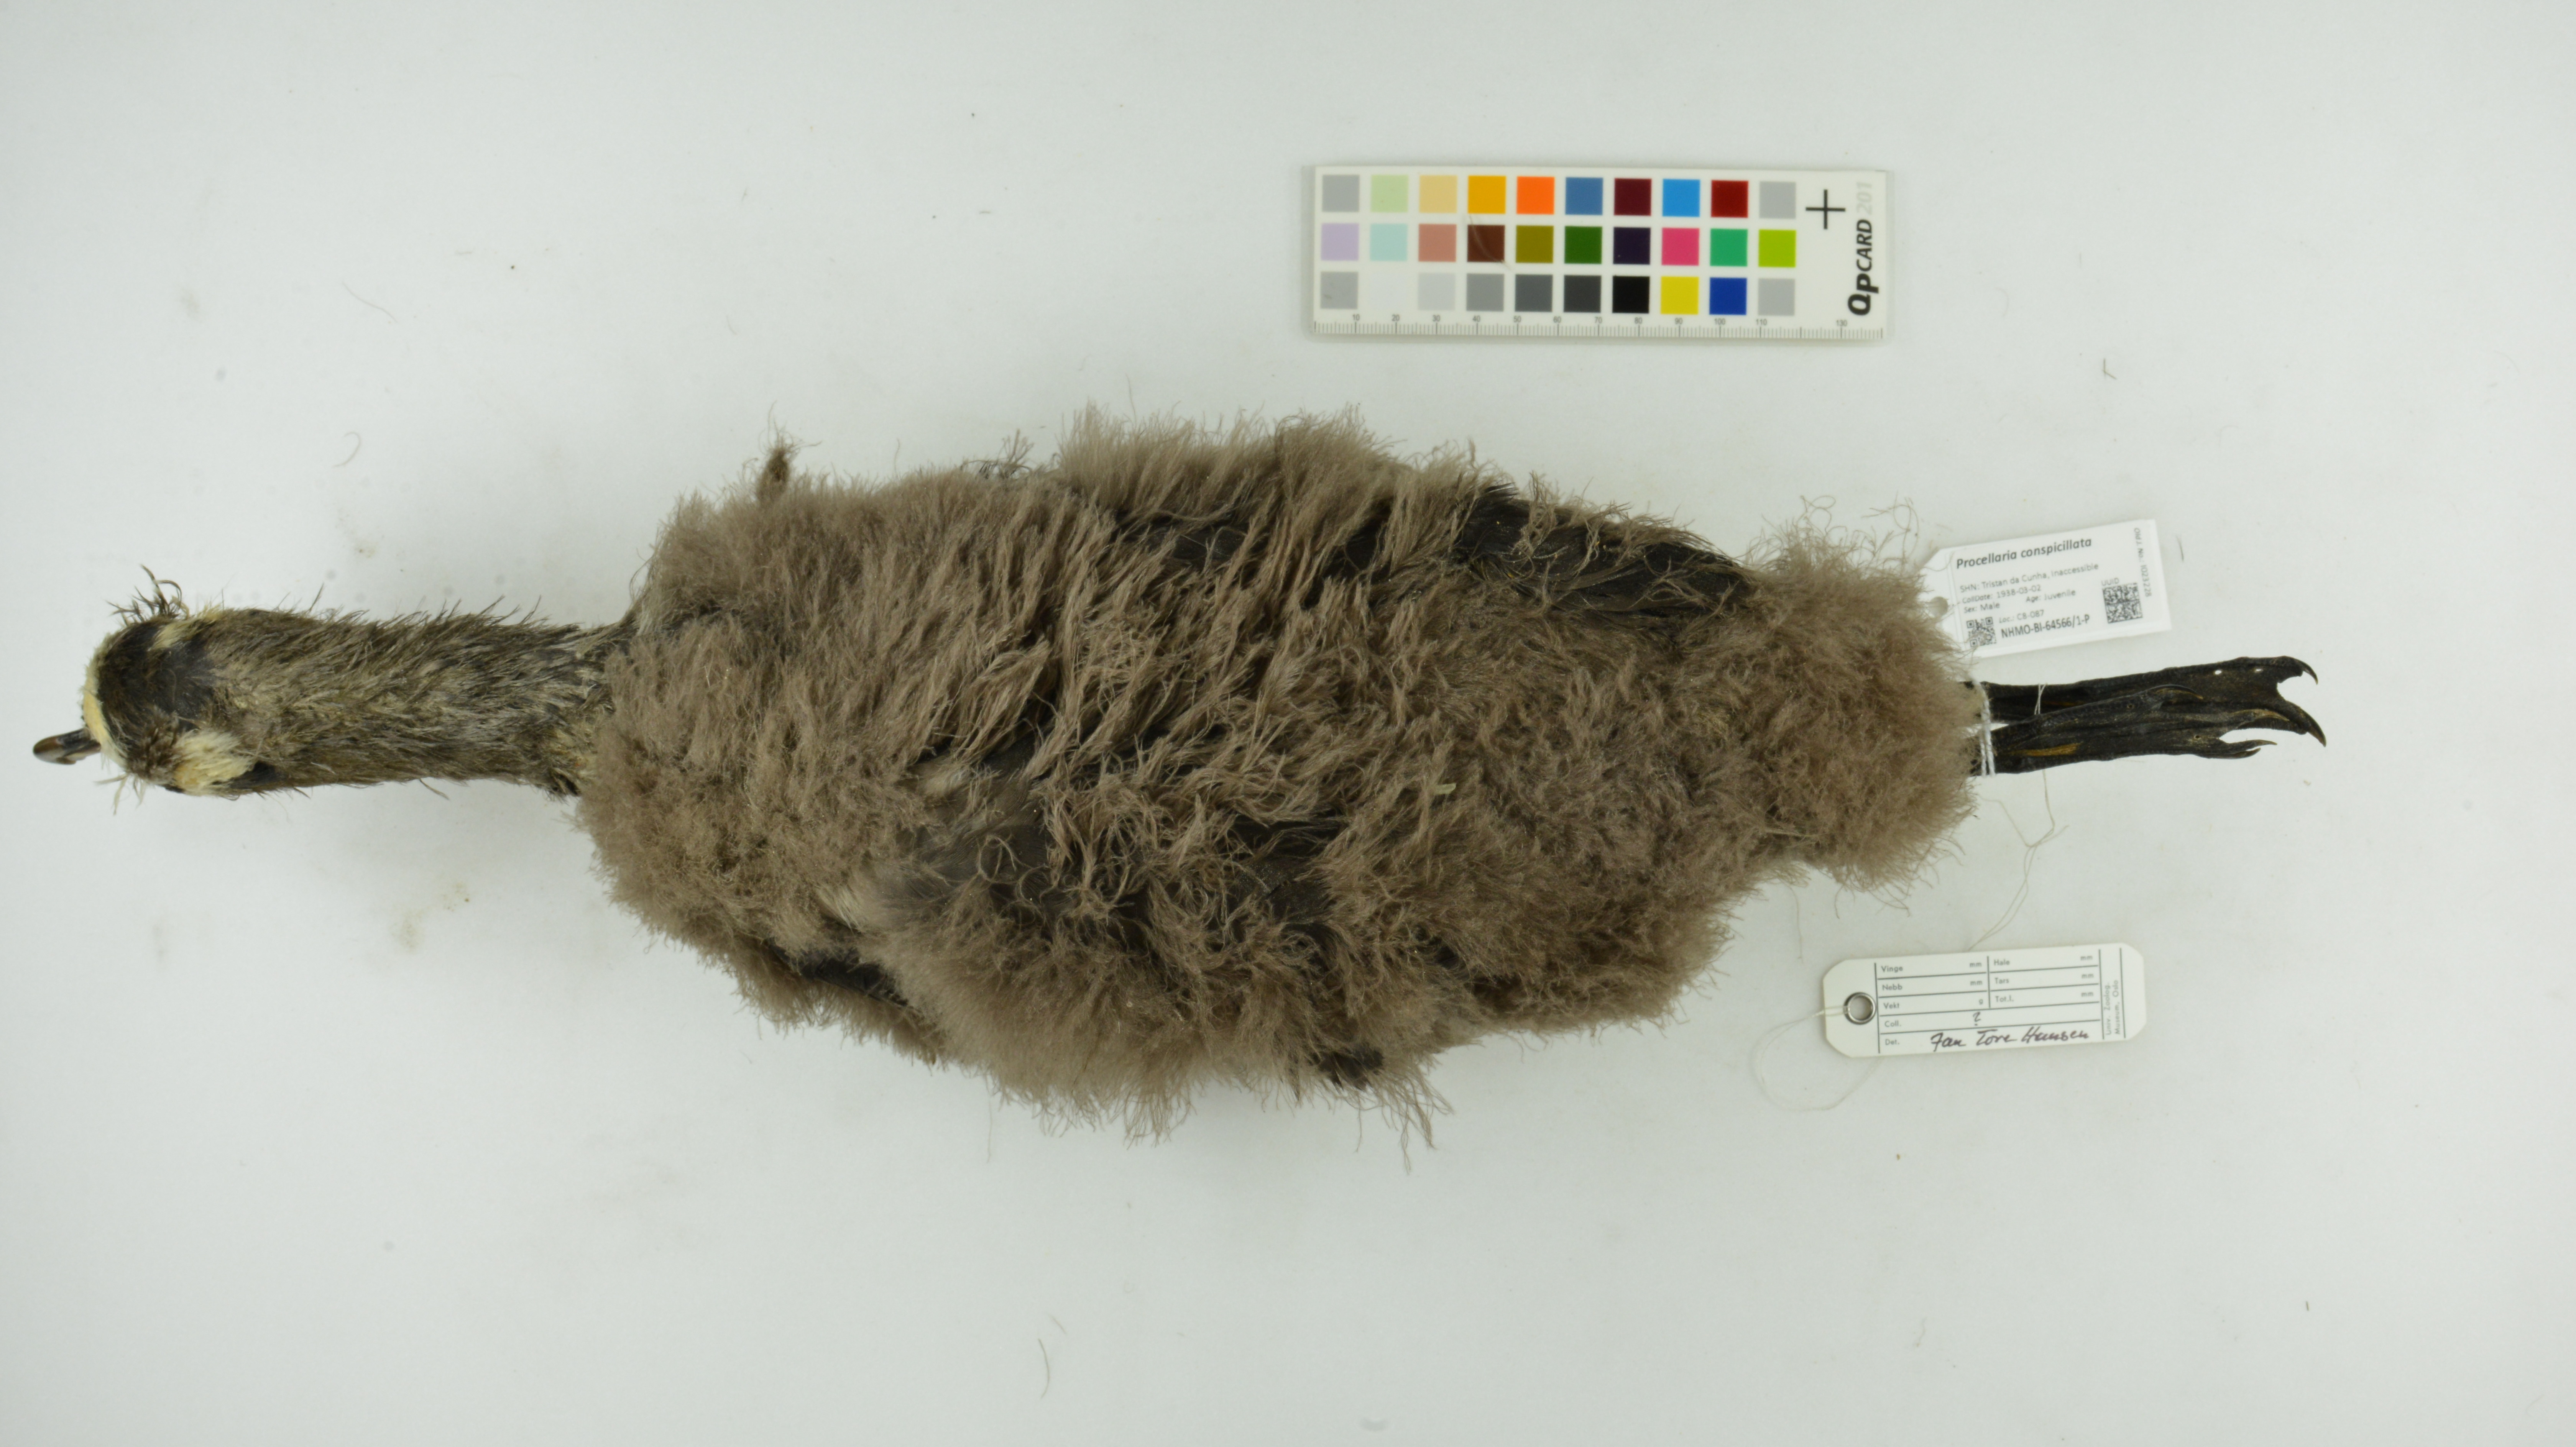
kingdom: Animalia
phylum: Chordata
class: Aves
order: Procellariiformes
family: Procellariidae
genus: Procellaria
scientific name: Procellaria conspicillata
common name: Spectacled petrel
